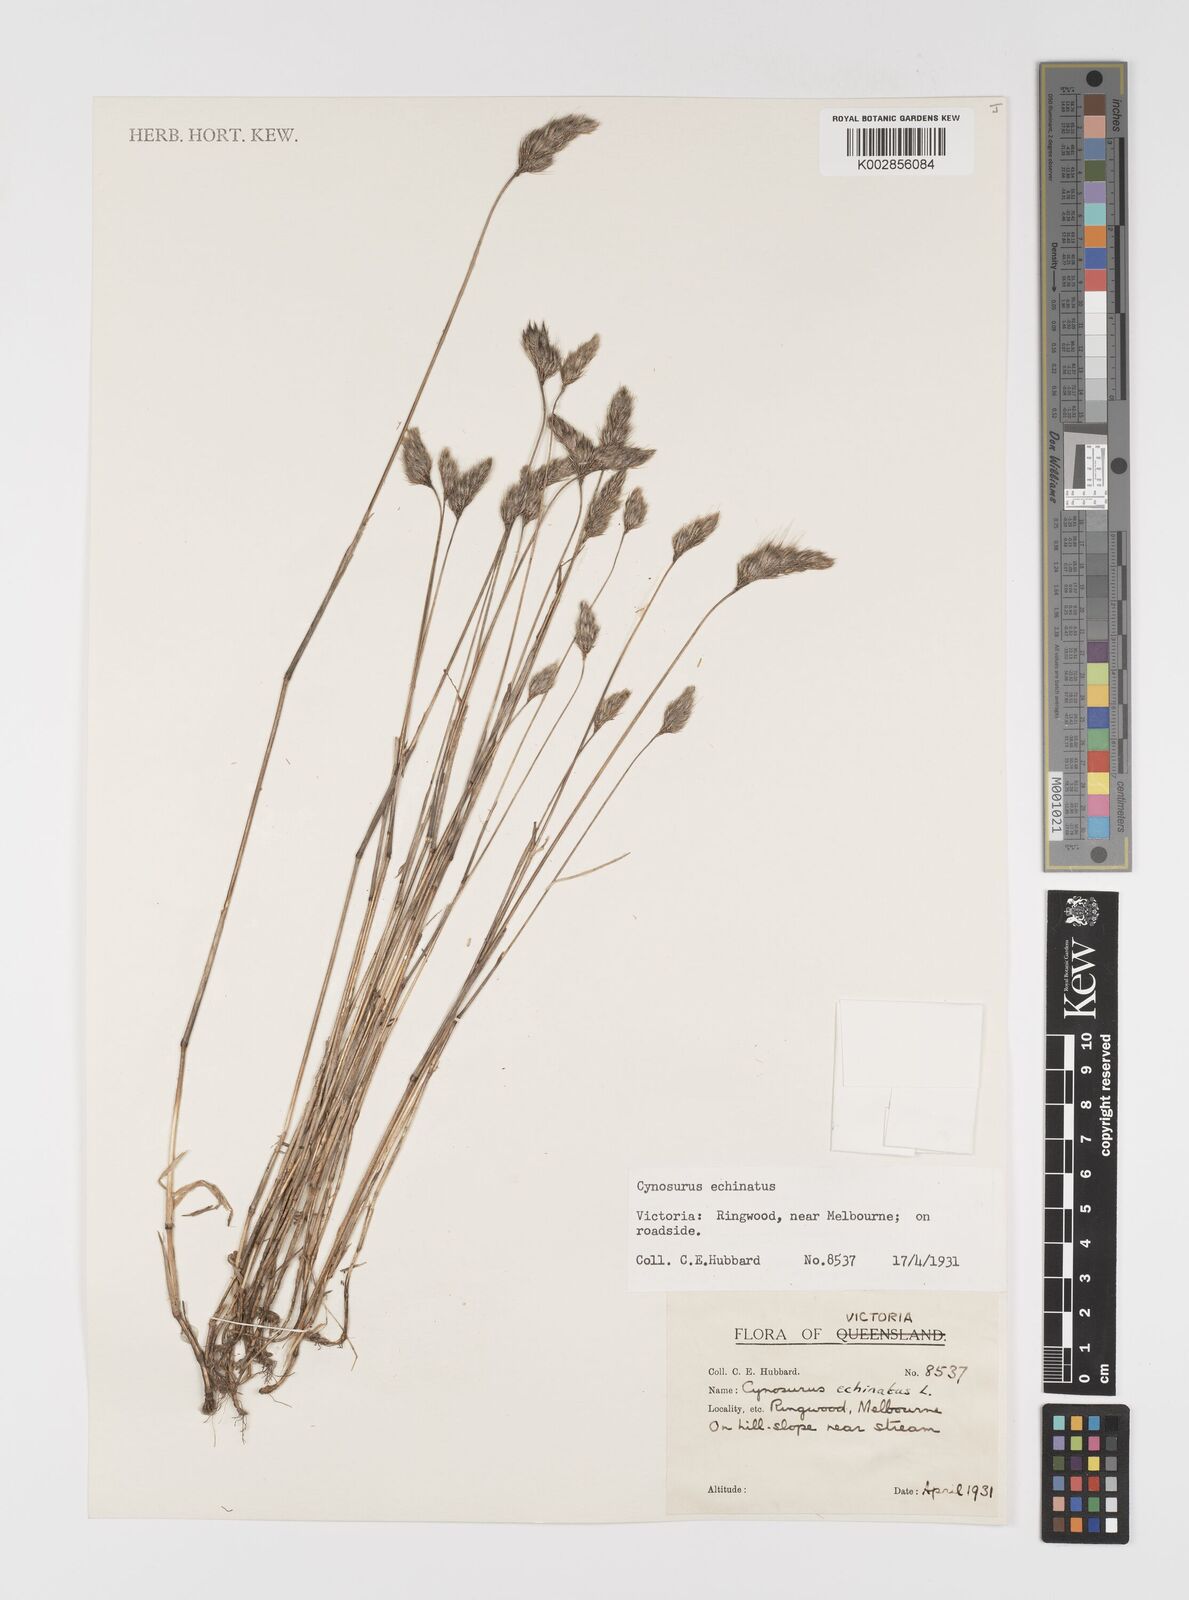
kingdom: Plantae
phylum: Tracheophyta
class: Liliopsida
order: Poales
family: Poaceae
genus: Cynosurus
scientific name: Cynosurus echinatus
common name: Rough dog's-tail
